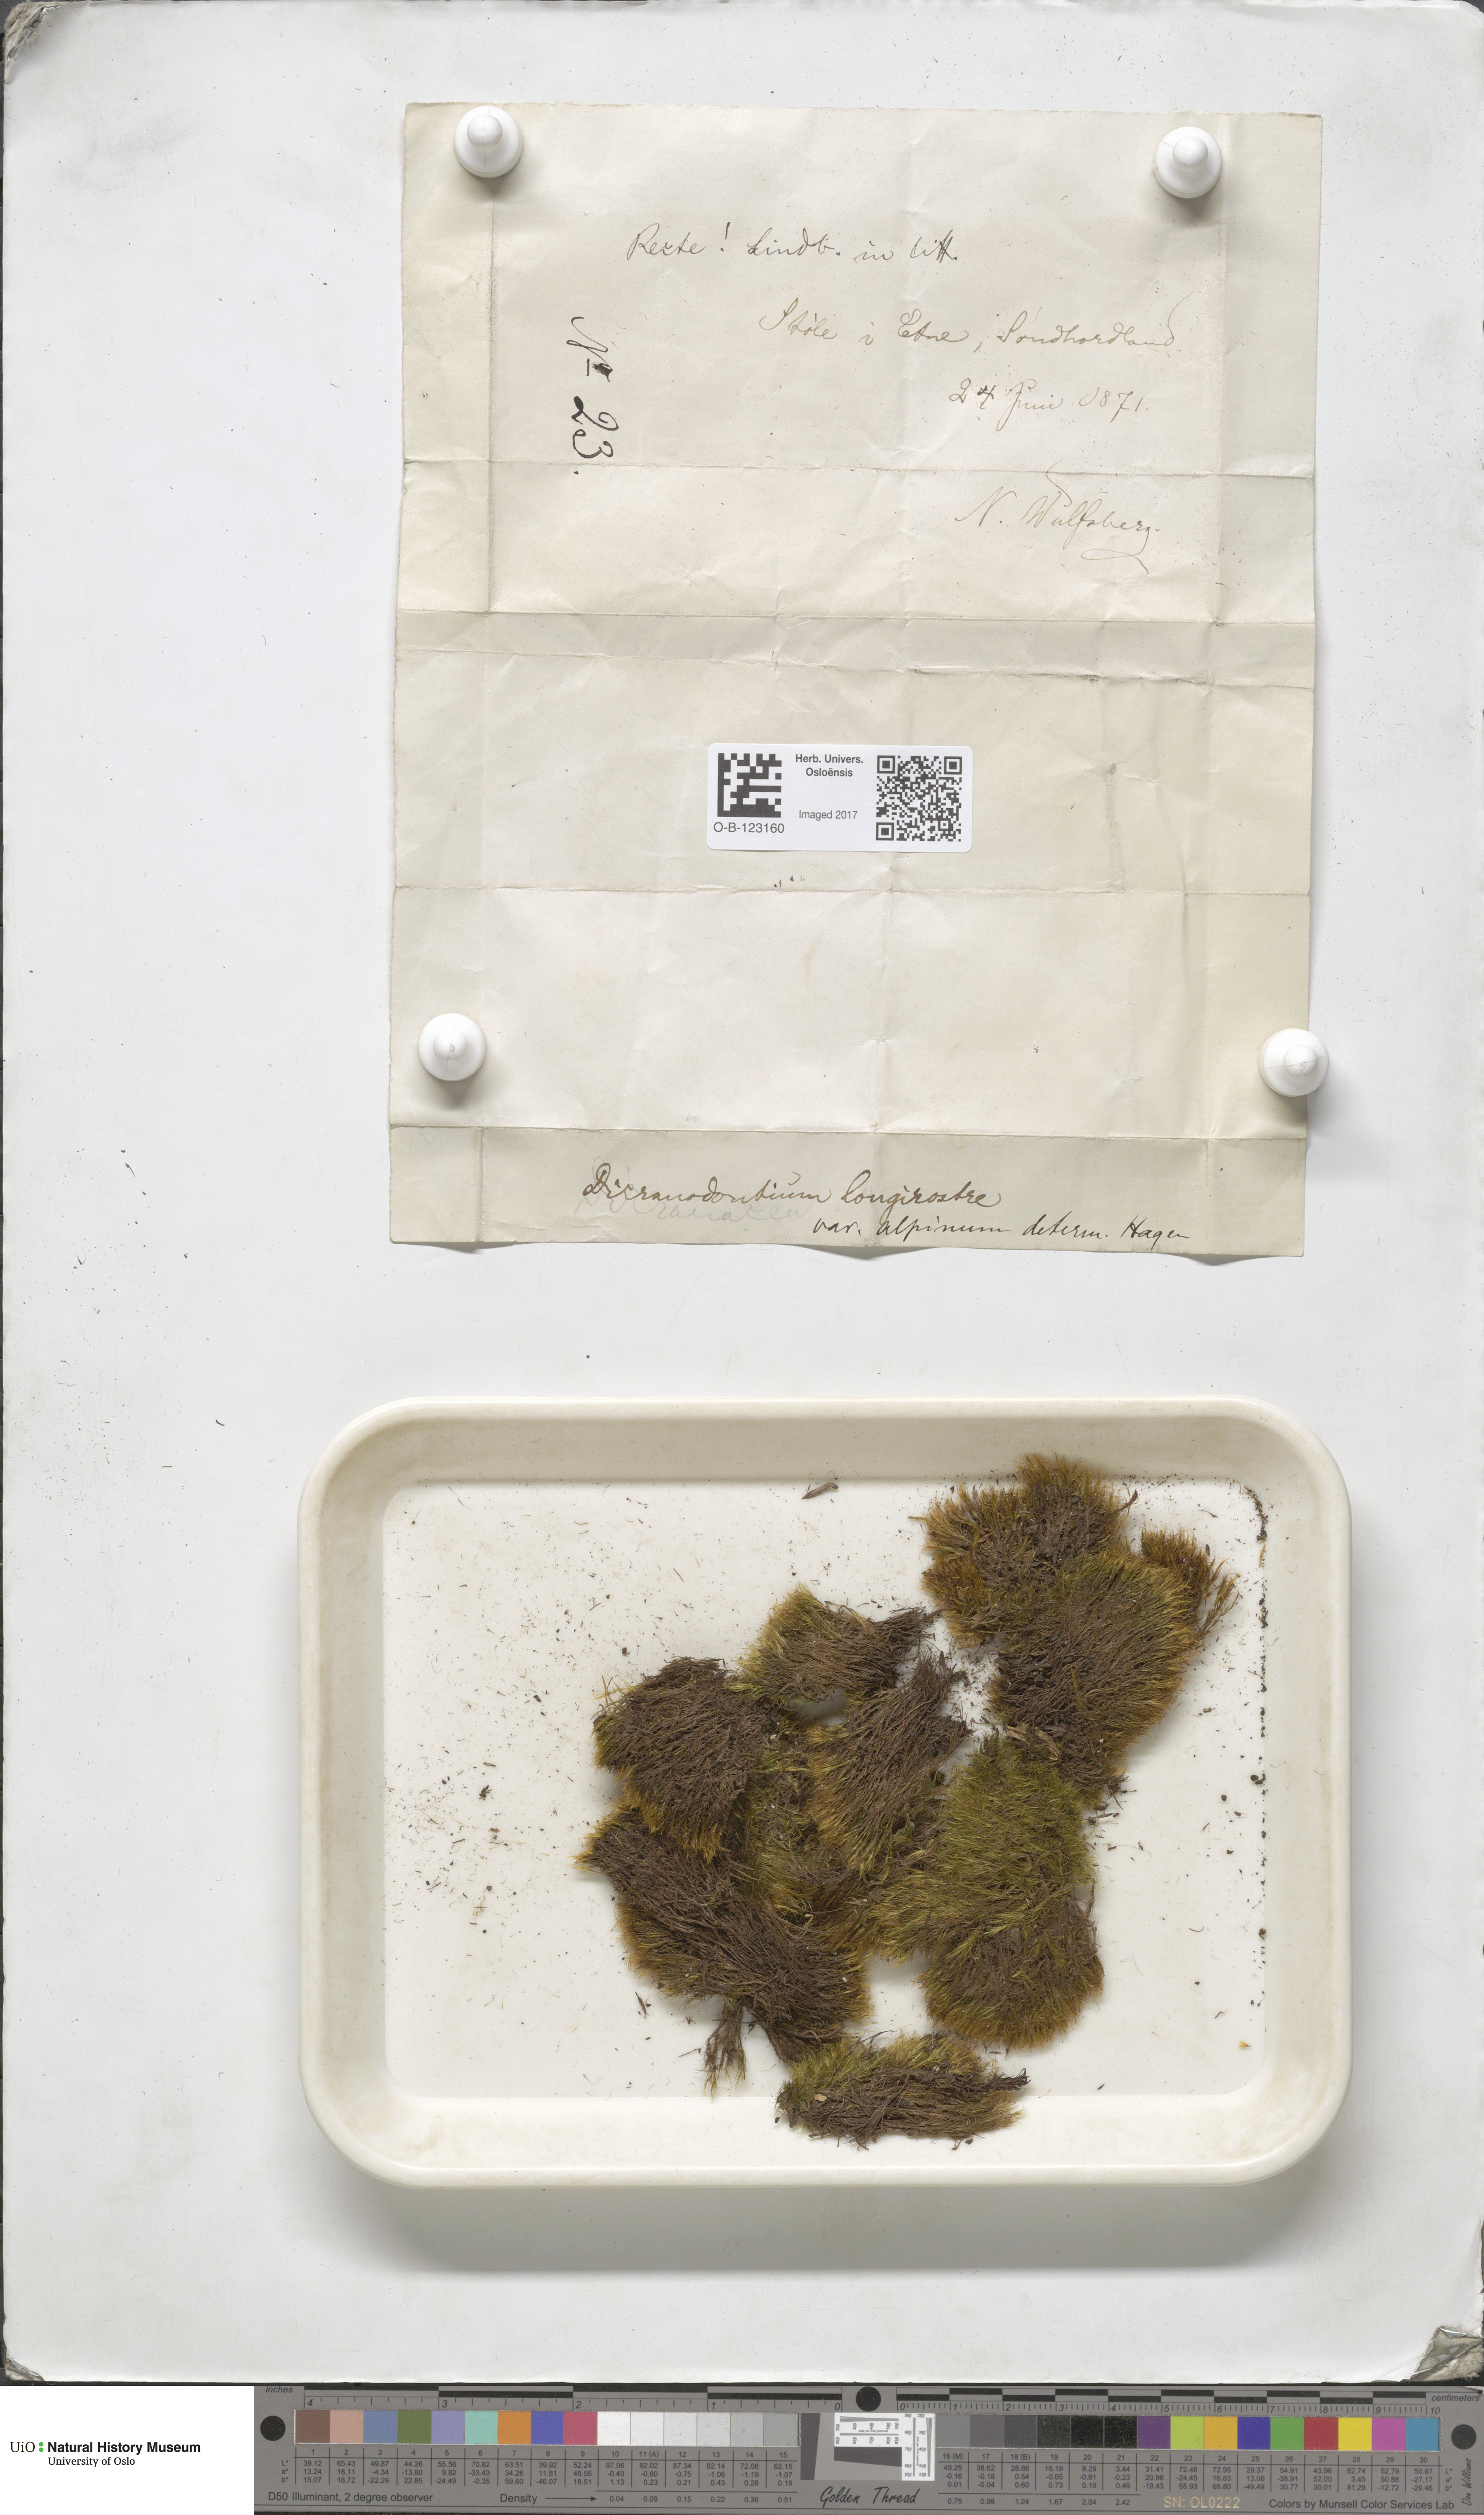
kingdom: Plantae
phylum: Bryophyta
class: Bryopsida
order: Dicranales
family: Leucobryaceae
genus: Dicranodontium
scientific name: Dicranodontium denudatum
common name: Beaked bow moss
